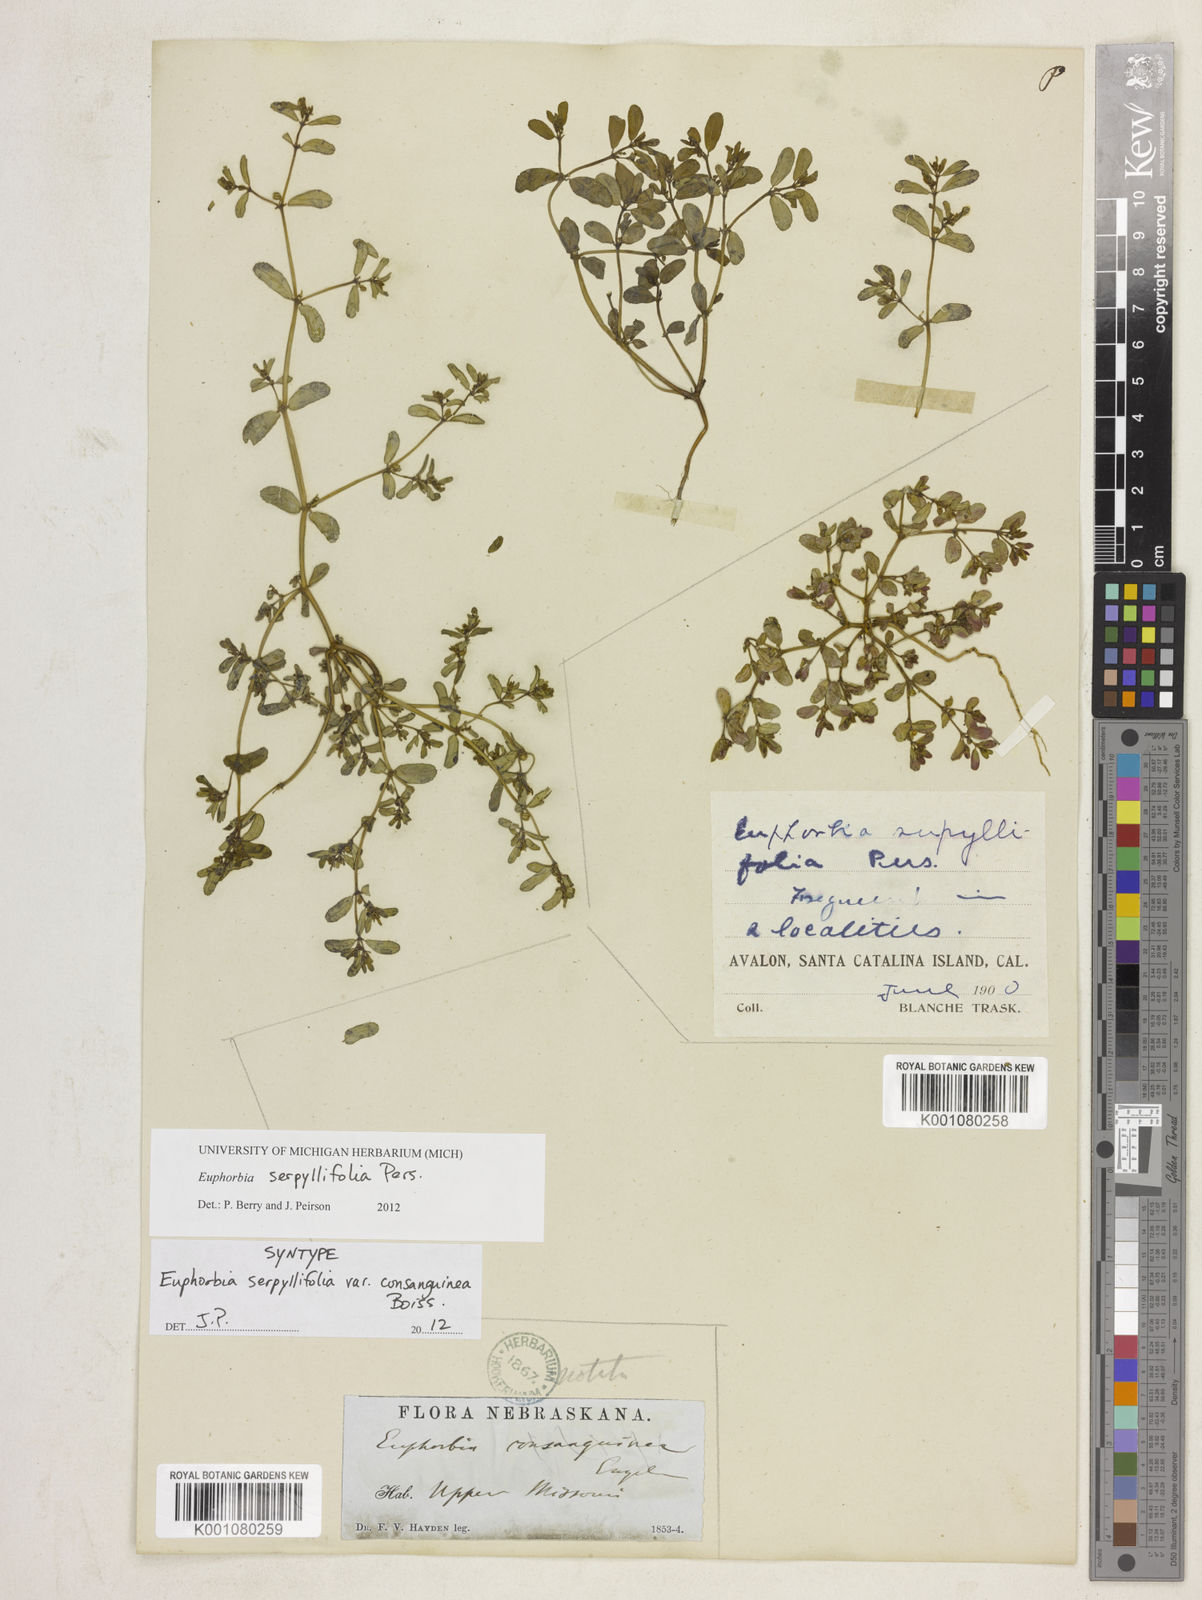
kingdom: Plantae
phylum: Tracheophyta
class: Magnoliopsida
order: Malpighiales
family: Euphorbiaceae
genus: Euphorbia
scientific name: Euphorbia serpillifolia
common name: Thyme-leaf spurge
